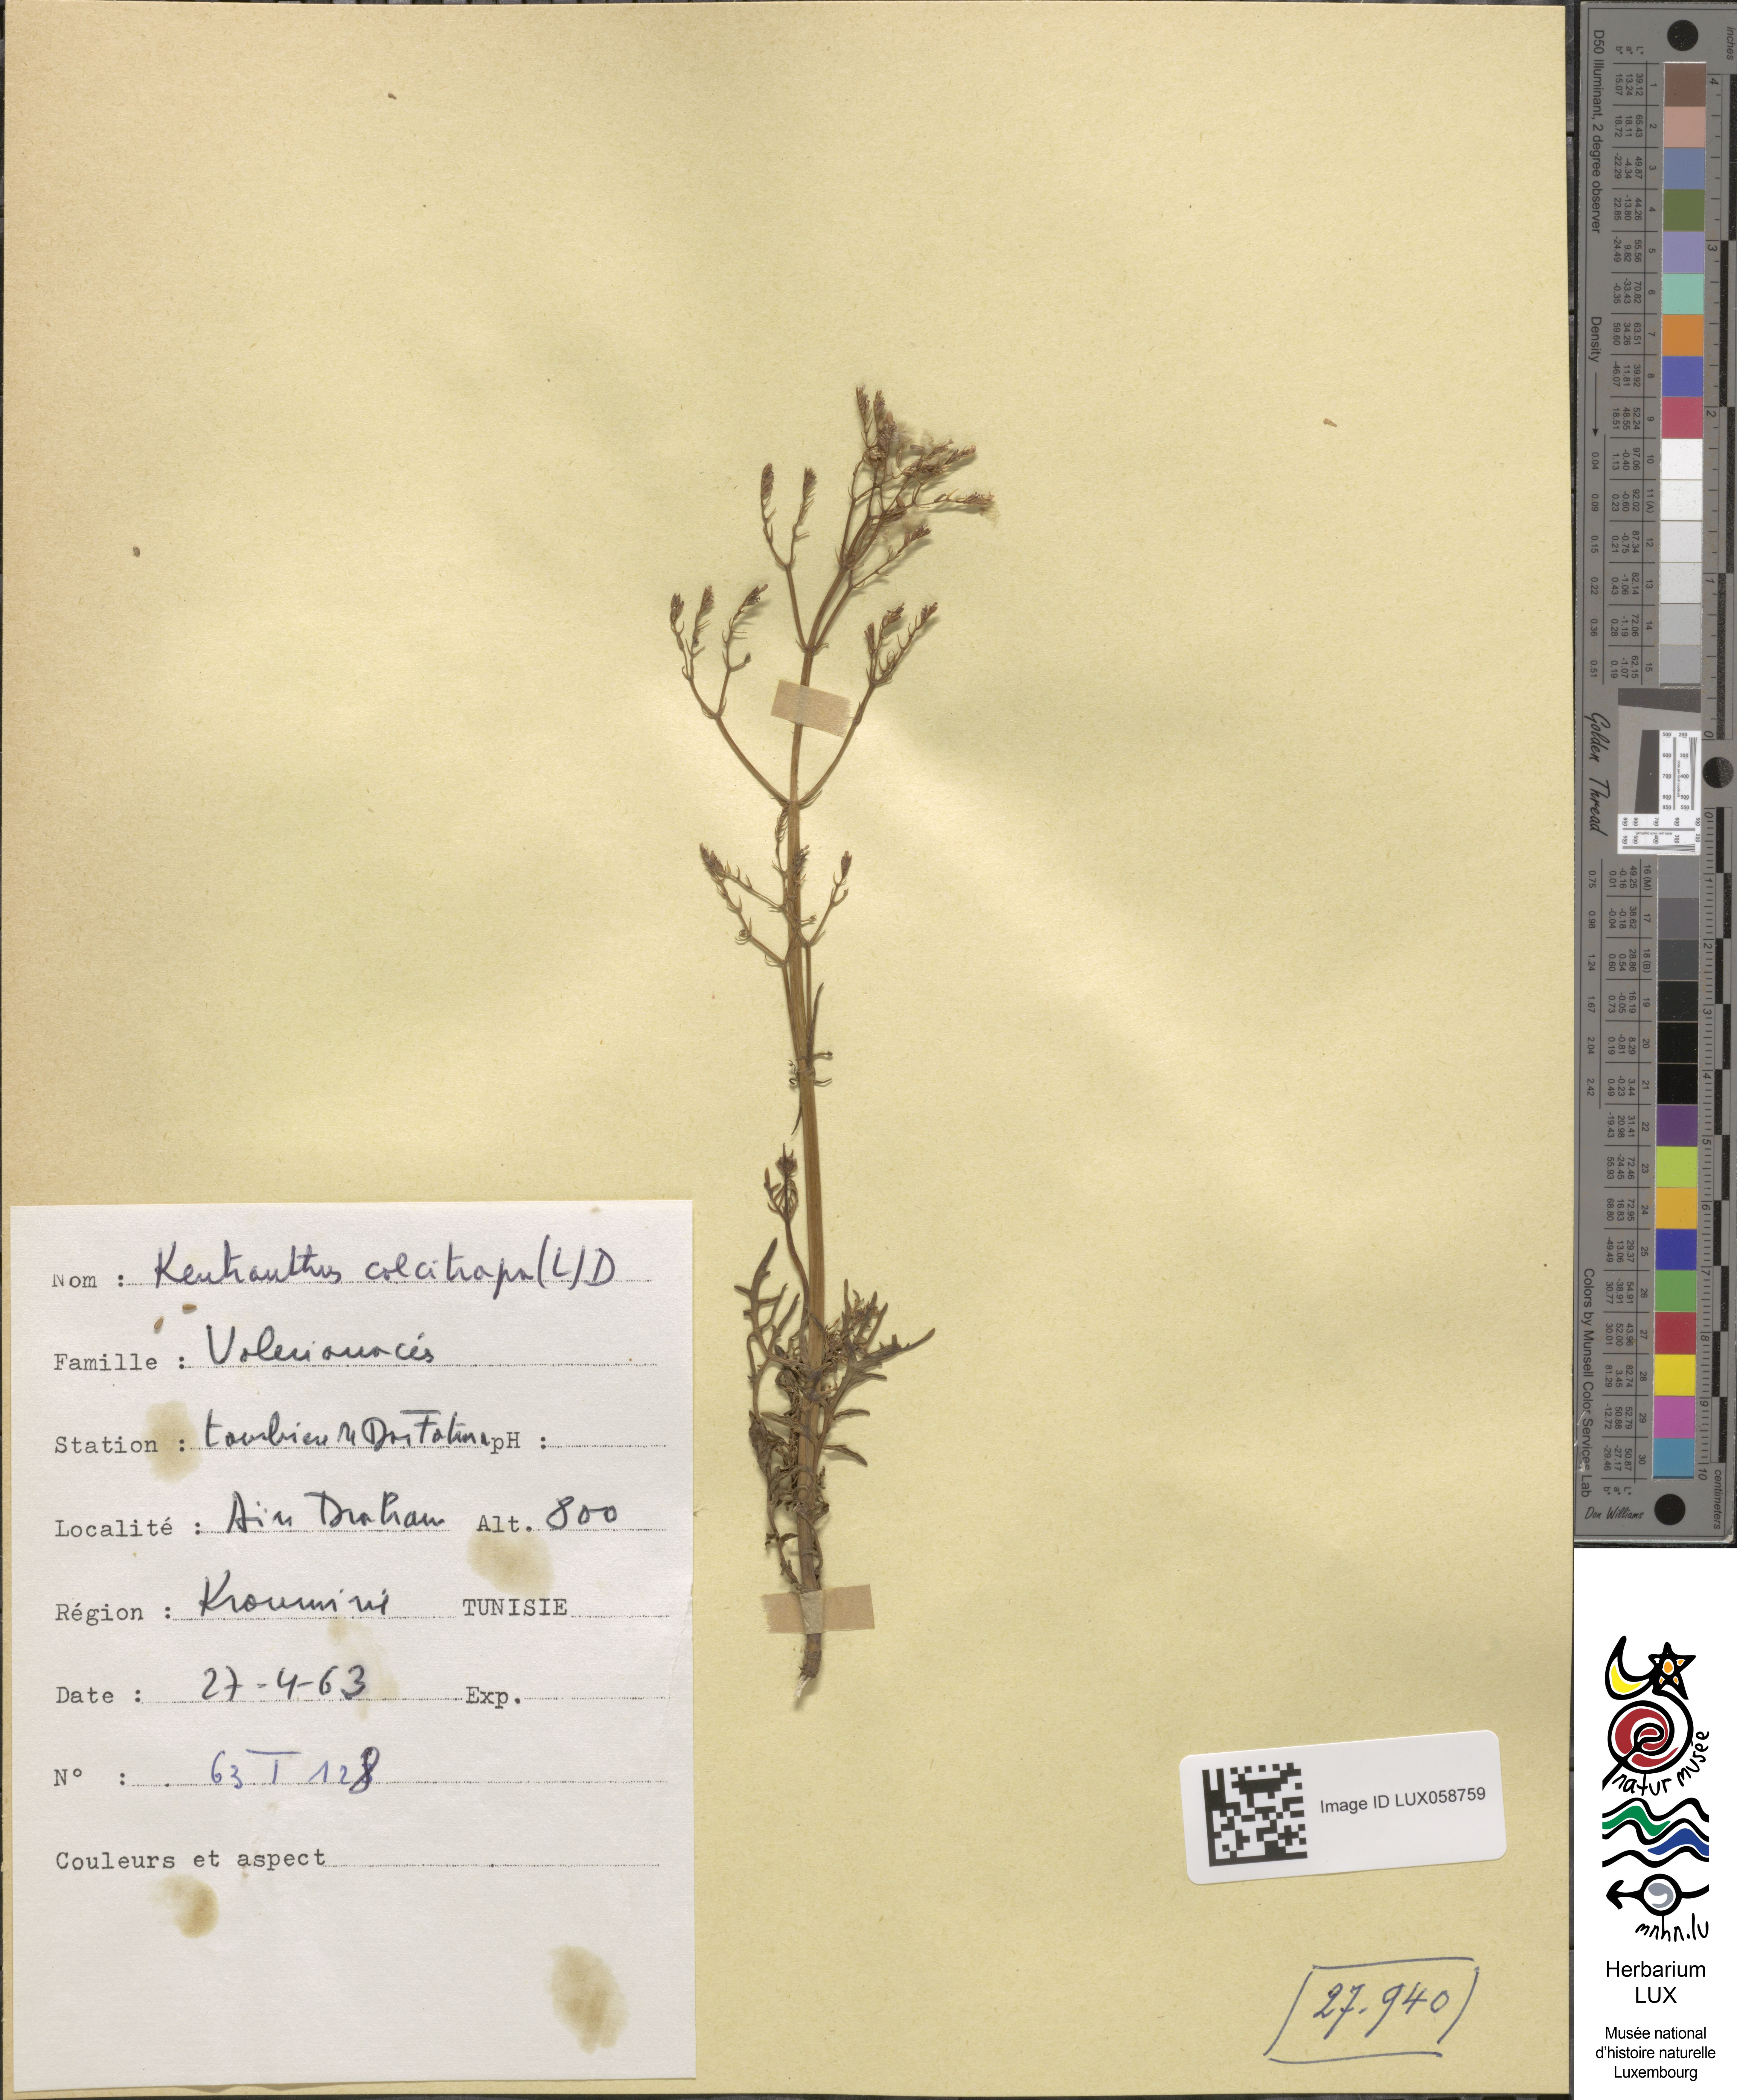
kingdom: Plantae
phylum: Tracheophyta
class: Magnoliopsida
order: Dipsacales
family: Caprifoliaceae
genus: Centranthus
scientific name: Centranthus calcitrapae
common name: Annual valerian
